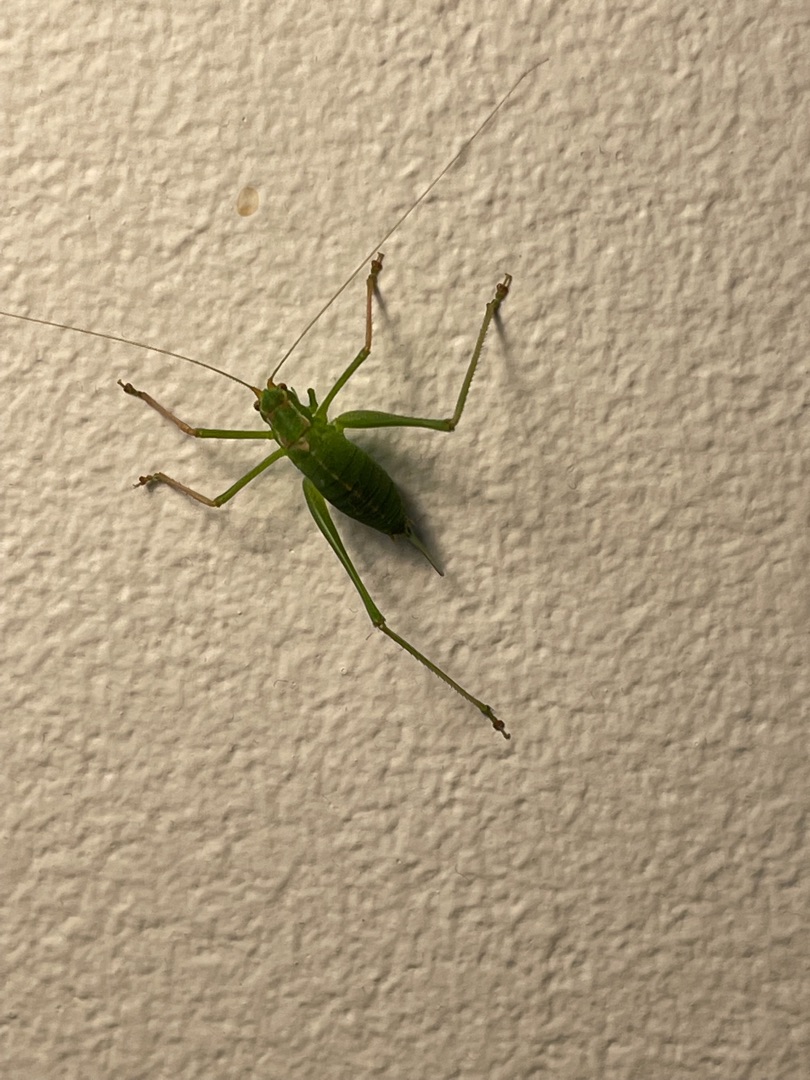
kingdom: Animalia
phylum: Arthropoda
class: Insecta
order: Orthoptera
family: Tettigoniidae
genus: Leptophyes
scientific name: Leptophyes punctatissima
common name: Krumknivgræshoppe
